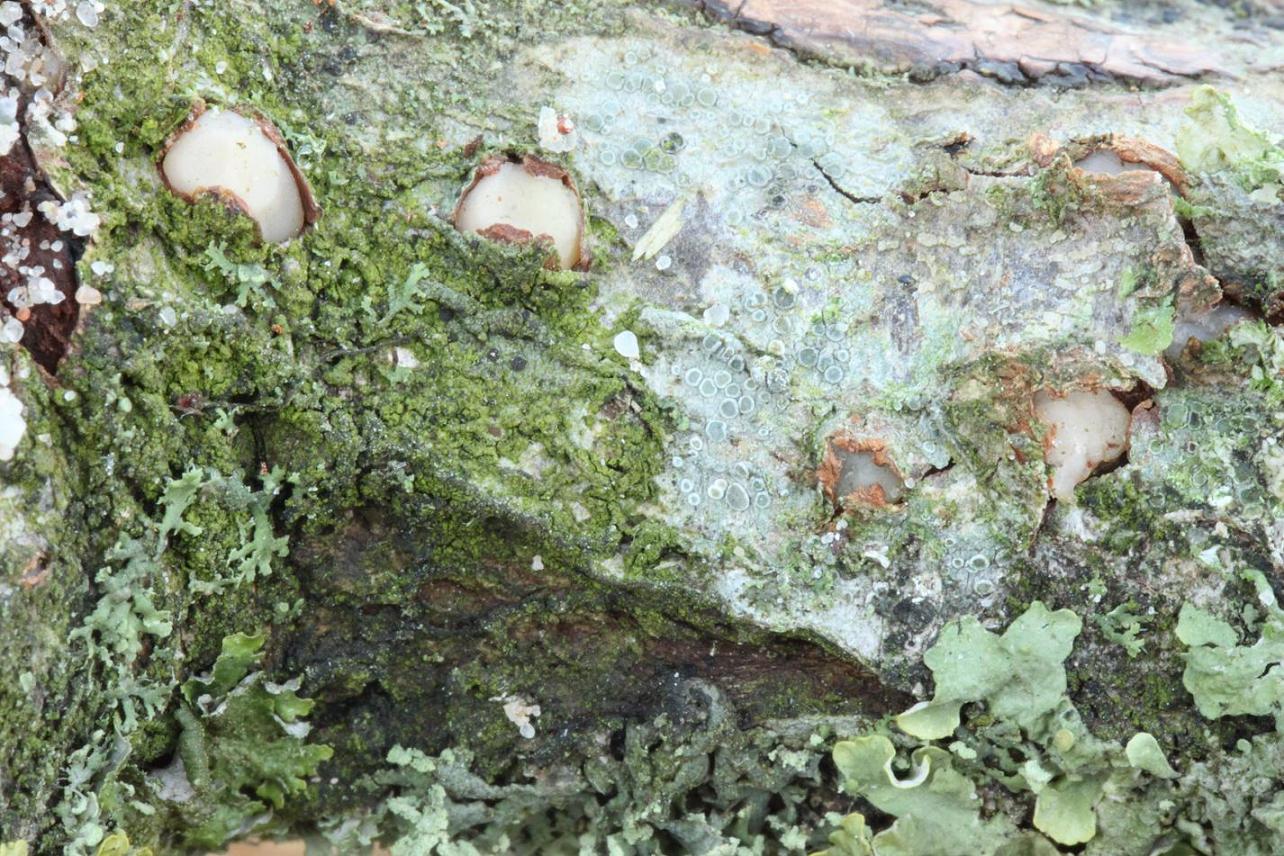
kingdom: Fungi
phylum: Basidiomycota
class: Pucciniomycetes
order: Platygloeales
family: Platygloeaceae
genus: Platygloea
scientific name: Platygloea disciformis
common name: linde-slimklat
